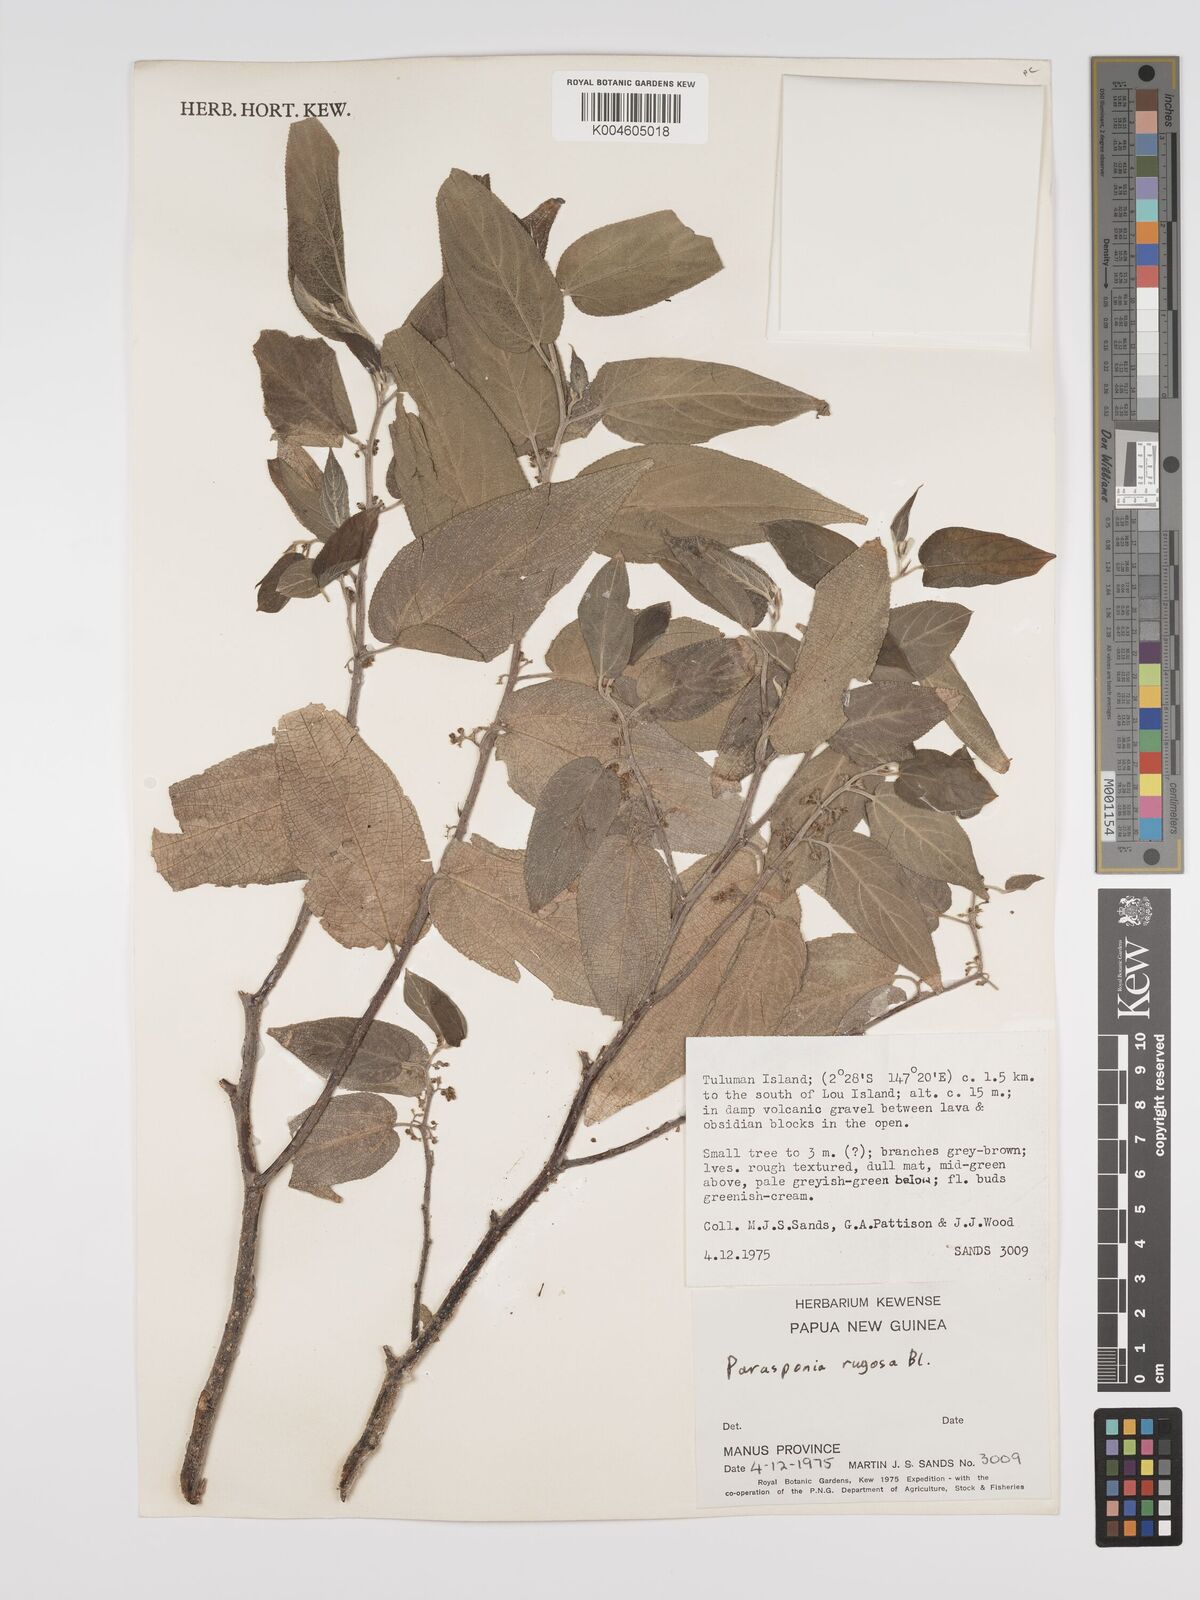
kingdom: Plantae
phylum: Tracheophyta
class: Magnoliopsida
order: Rosales
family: Cannabaceae
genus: Trema
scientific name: Trema eurhynchum
